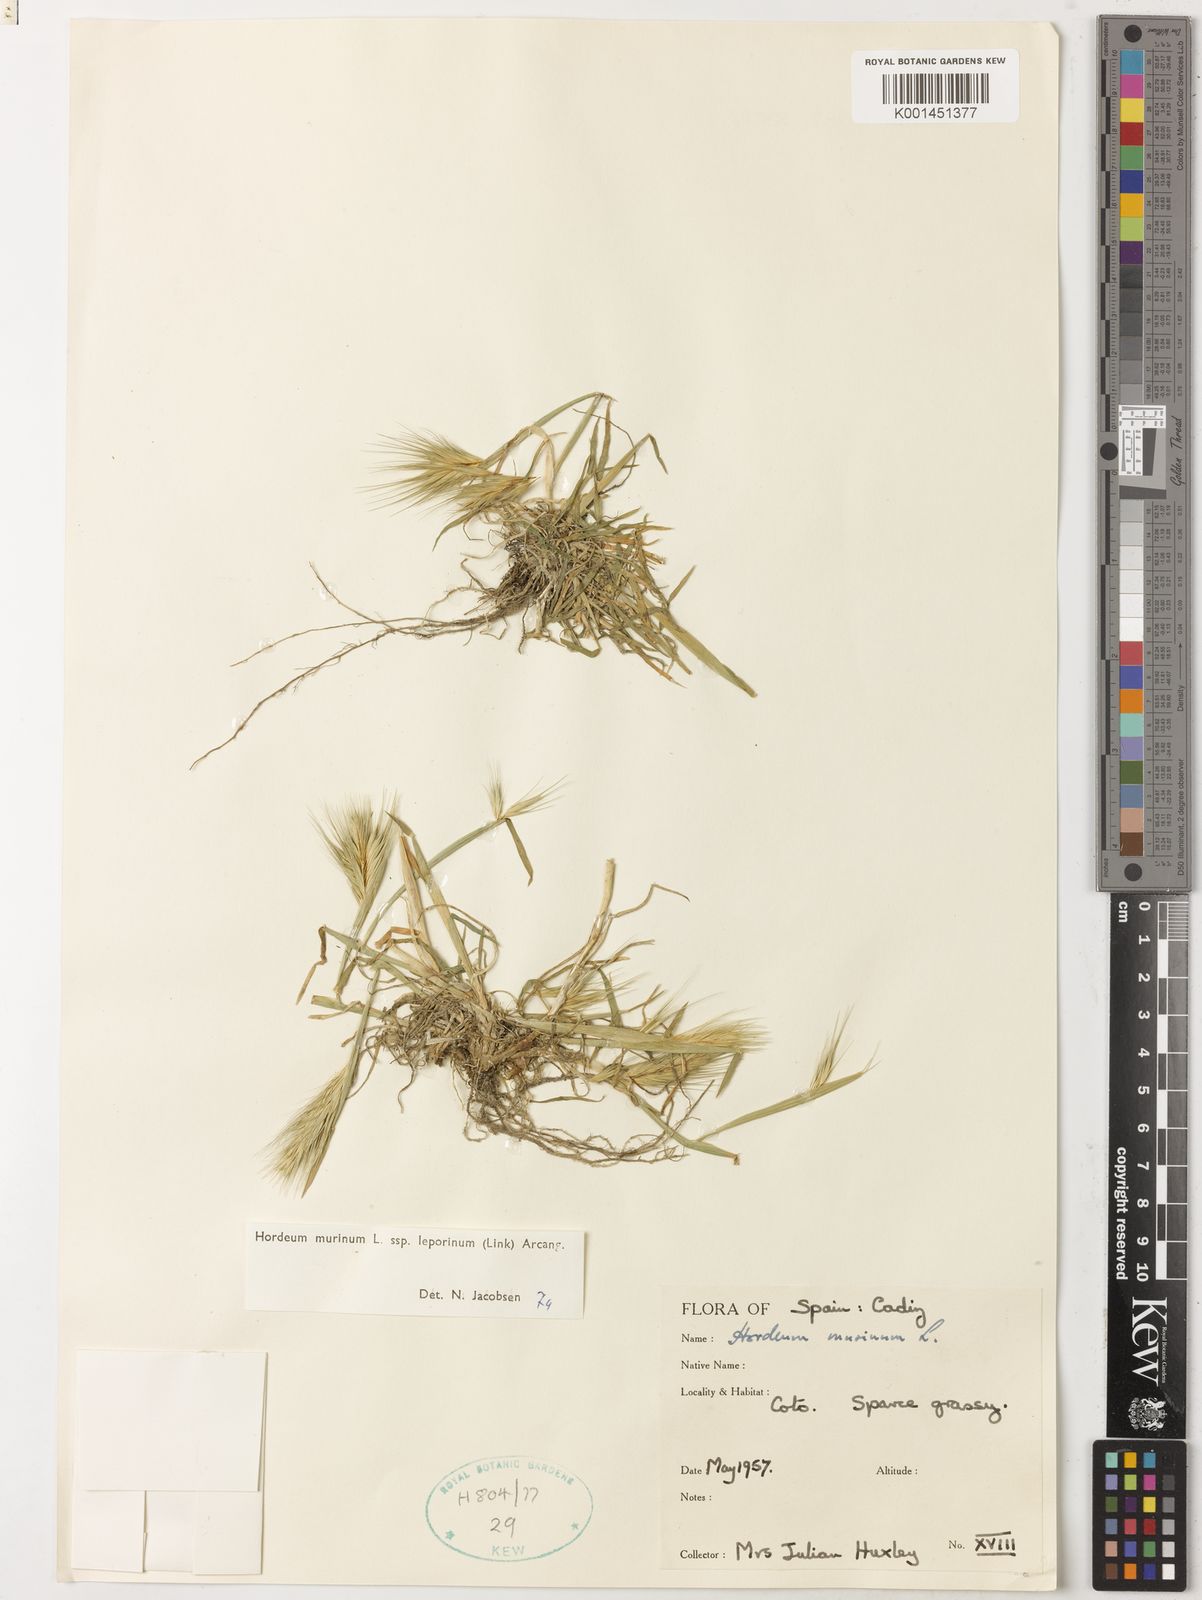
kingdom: Plantae
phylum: Tracheophyta
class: Liliopsida
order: Poales
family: Poaceae
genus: Hordeum
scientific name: Hordeum murinum
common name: Wall barley
